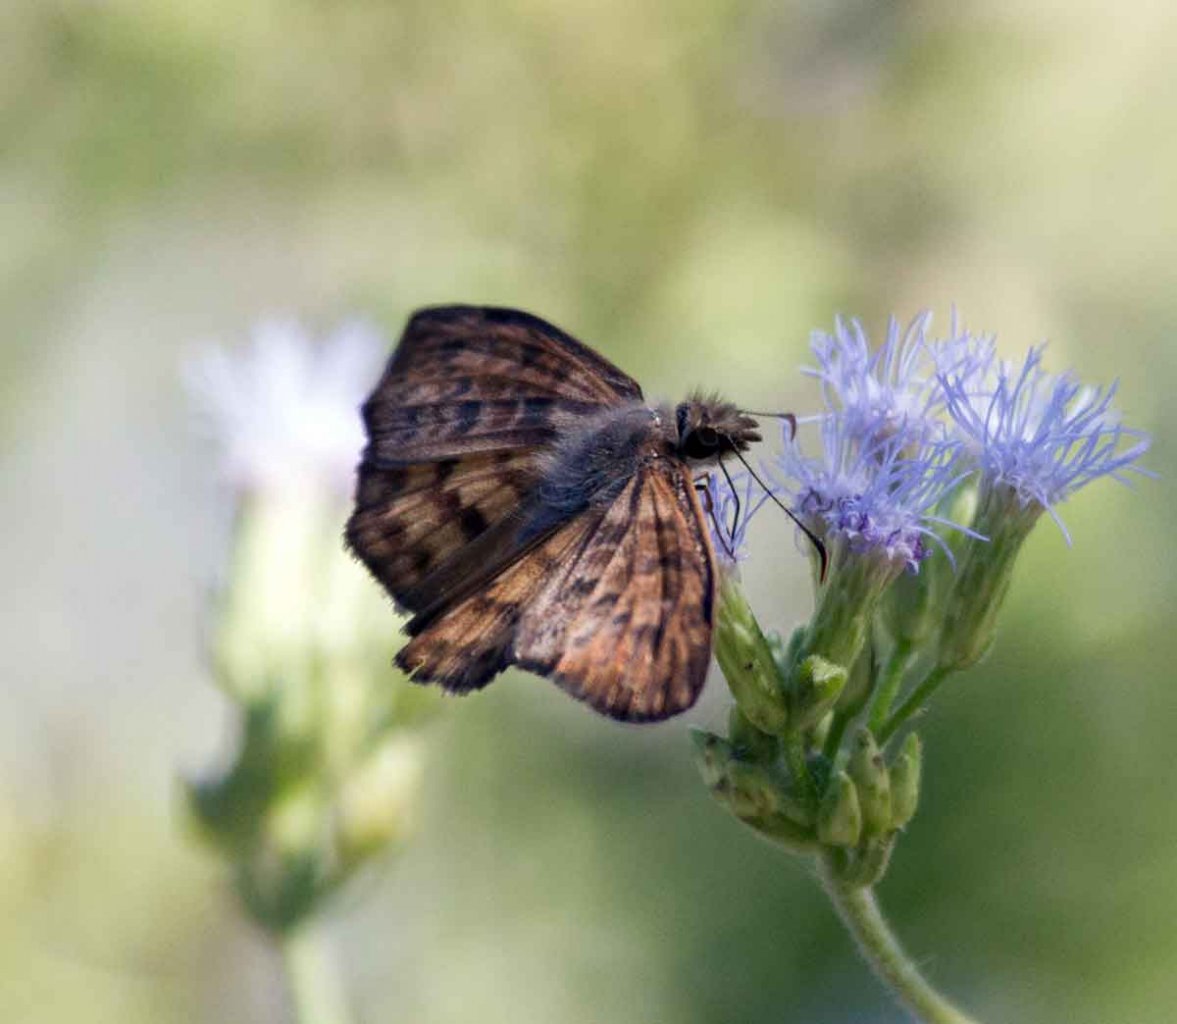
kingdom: Animalia
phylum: Arthropoda
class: Insecta
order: Lepidoptera
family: Hesperiidae
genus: Timochares
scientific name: Timochares ruptifasciata
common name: Brown-banded Skipper
